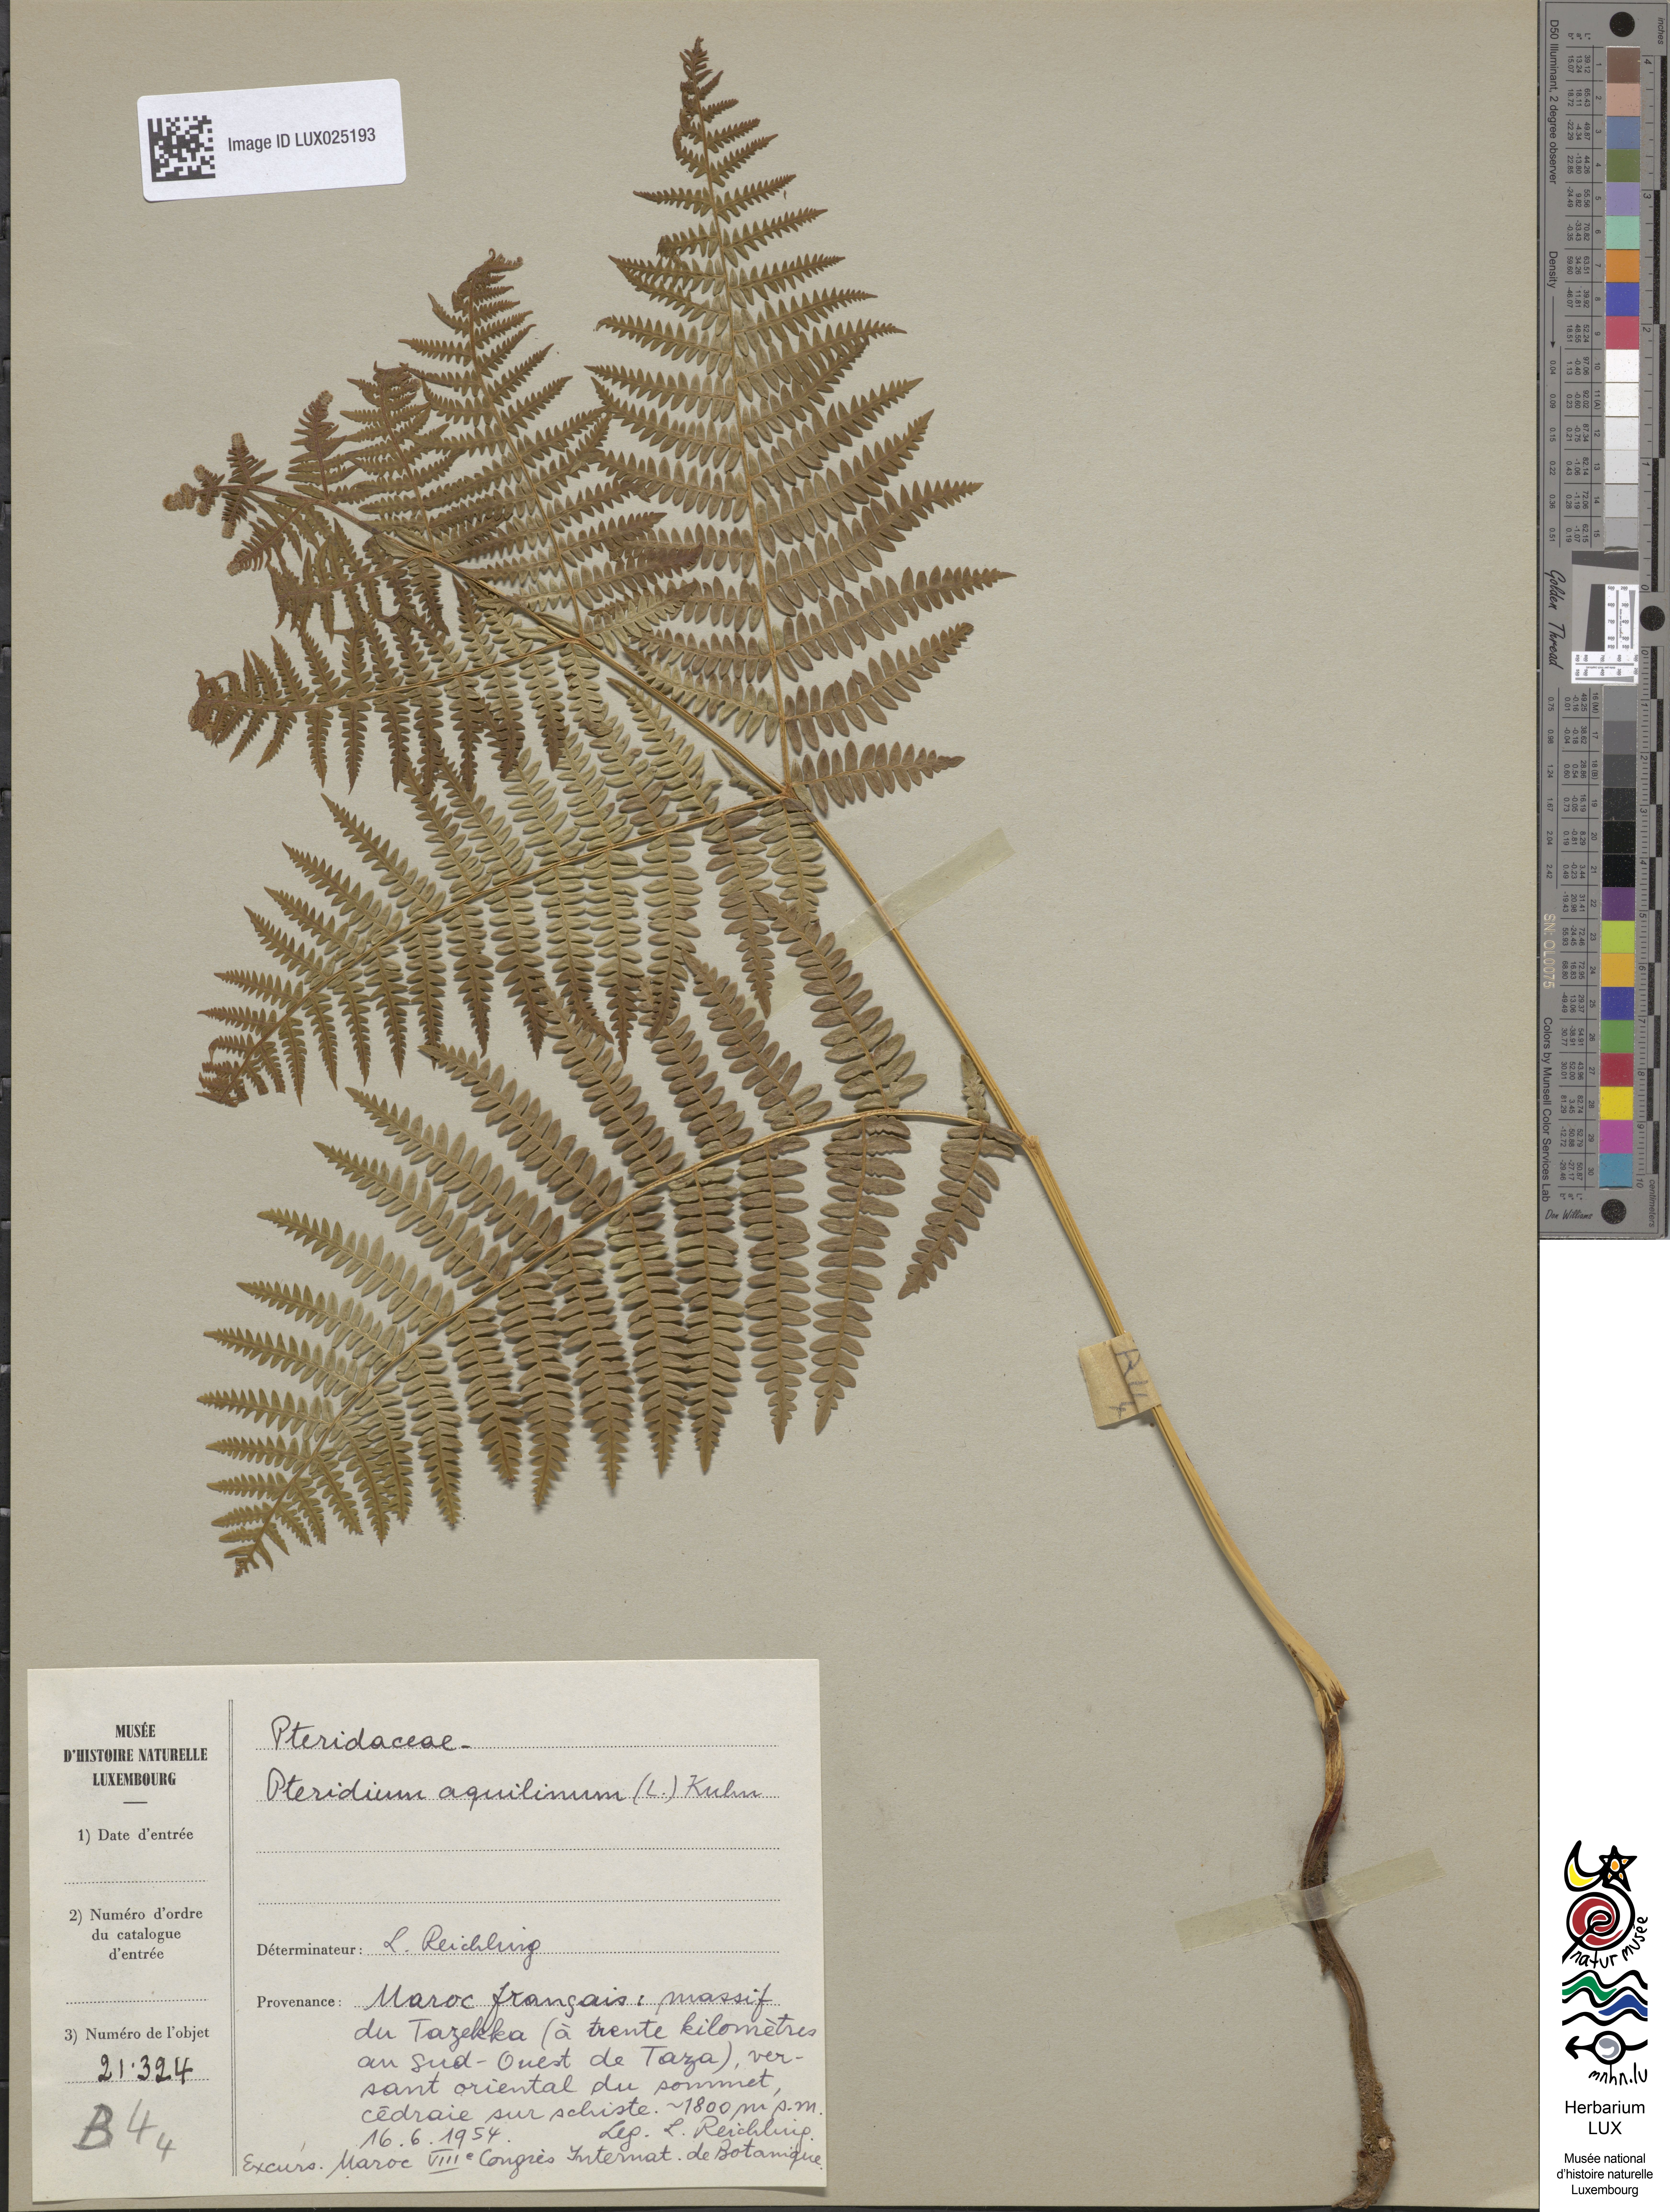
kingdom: Plantae
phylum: Tracheophyta
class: Polypodiopsida
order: Polypodiales
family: Dennstaedtiaceae
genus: Pteridium
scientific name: Pteridium aquilinum
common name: Bracken
